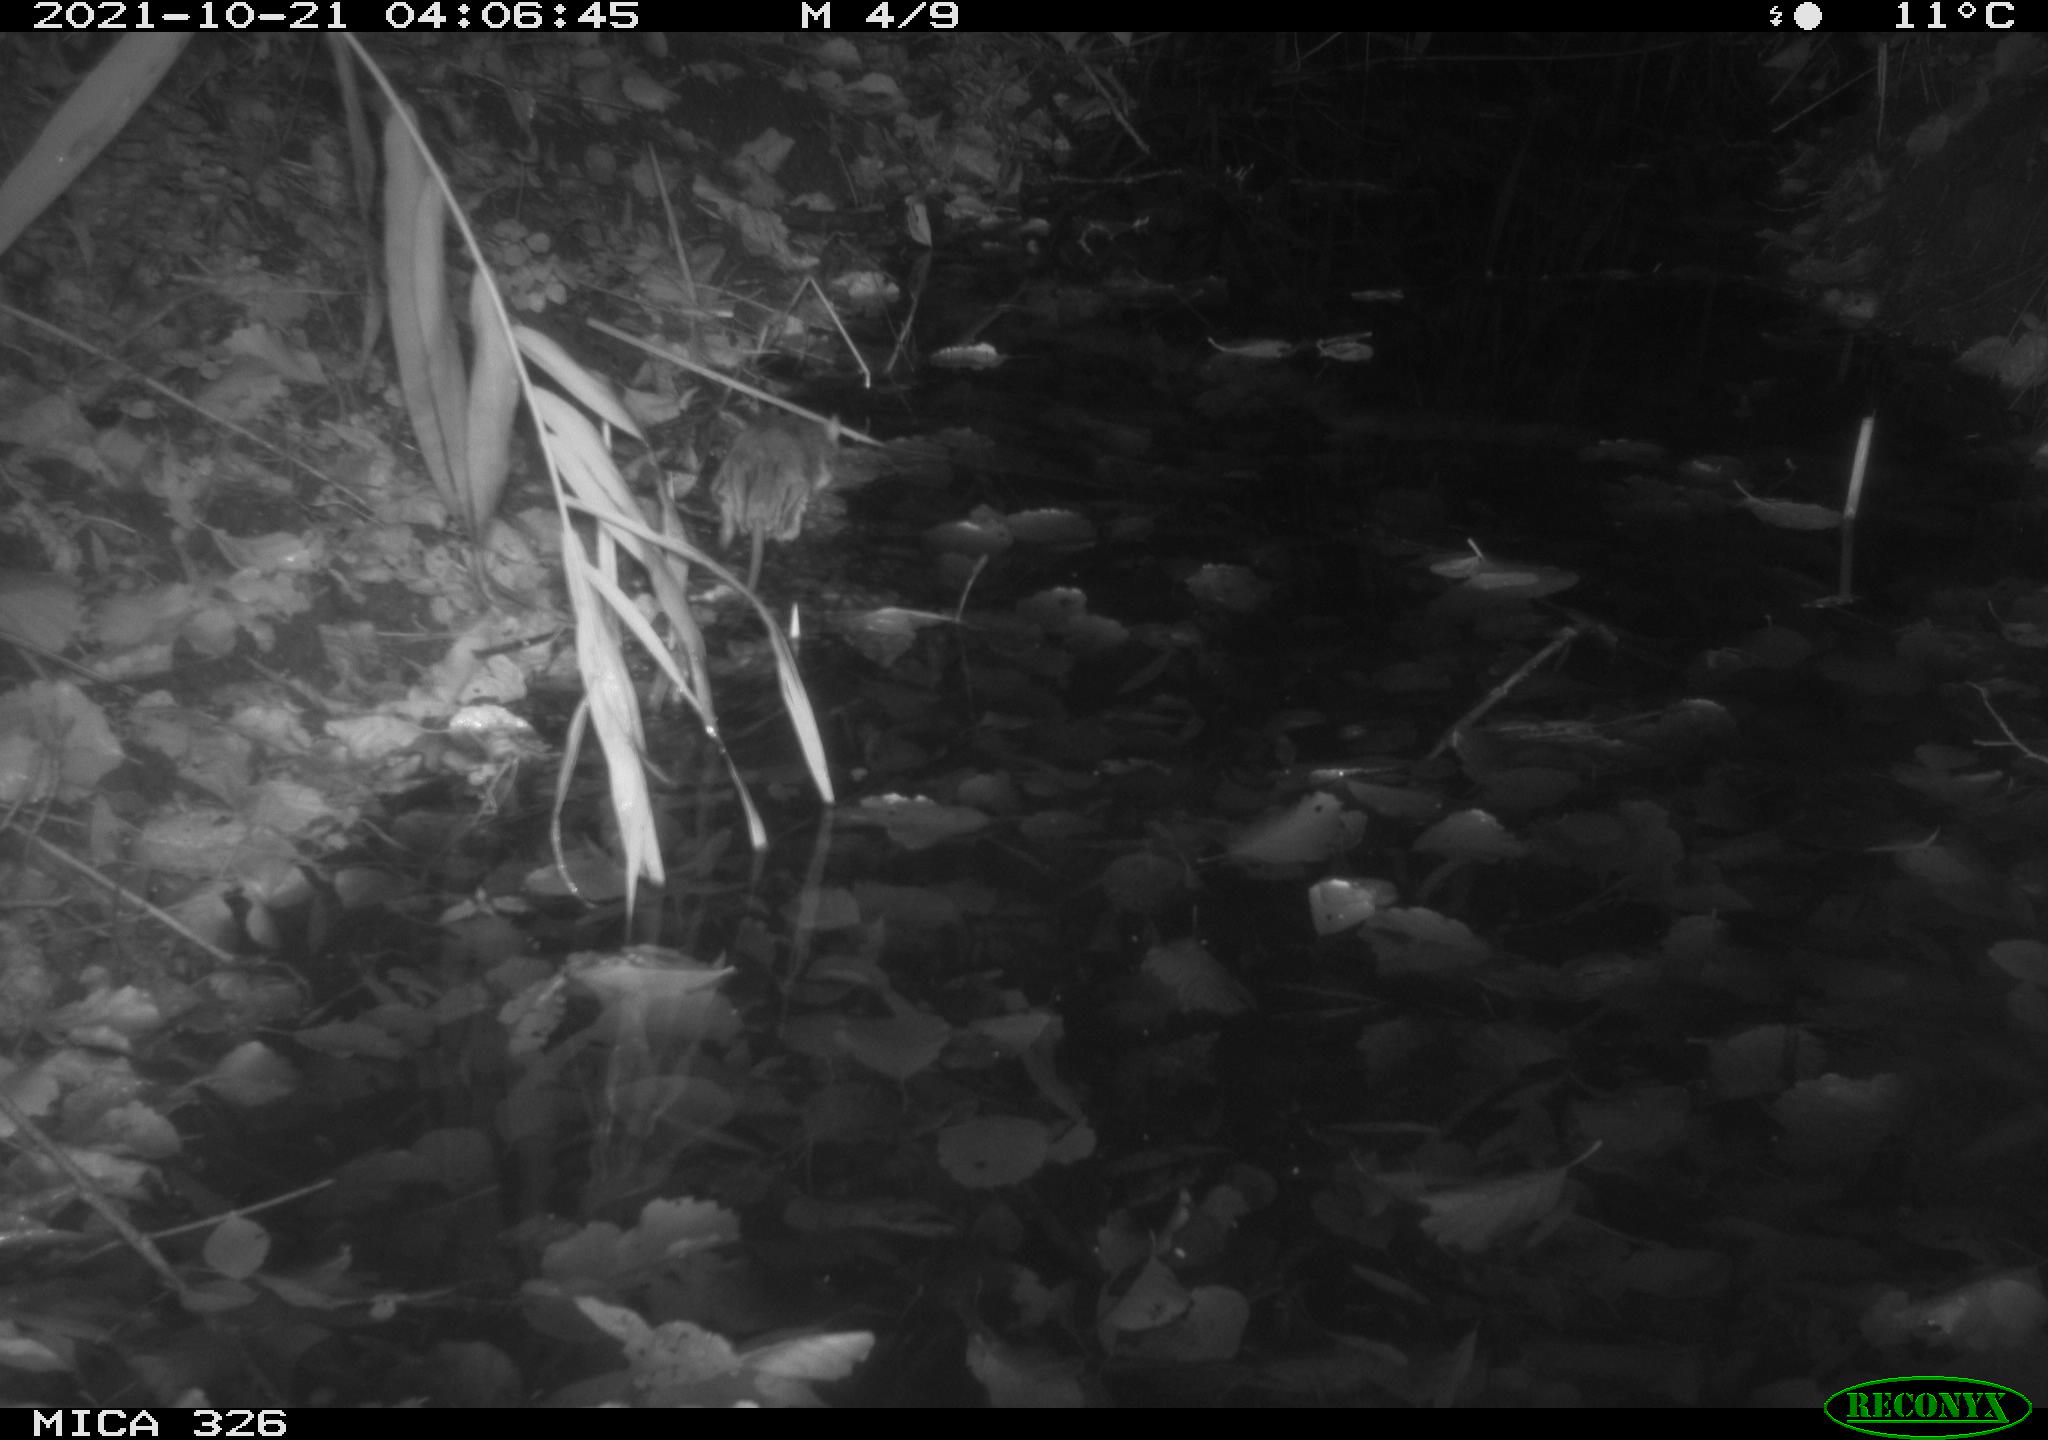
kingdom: Animalia
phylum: Chordata
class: Mammalia
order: Rodentia
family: Muridae
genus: Rattus
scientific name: Rattus norvegicus
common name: Brown rat
